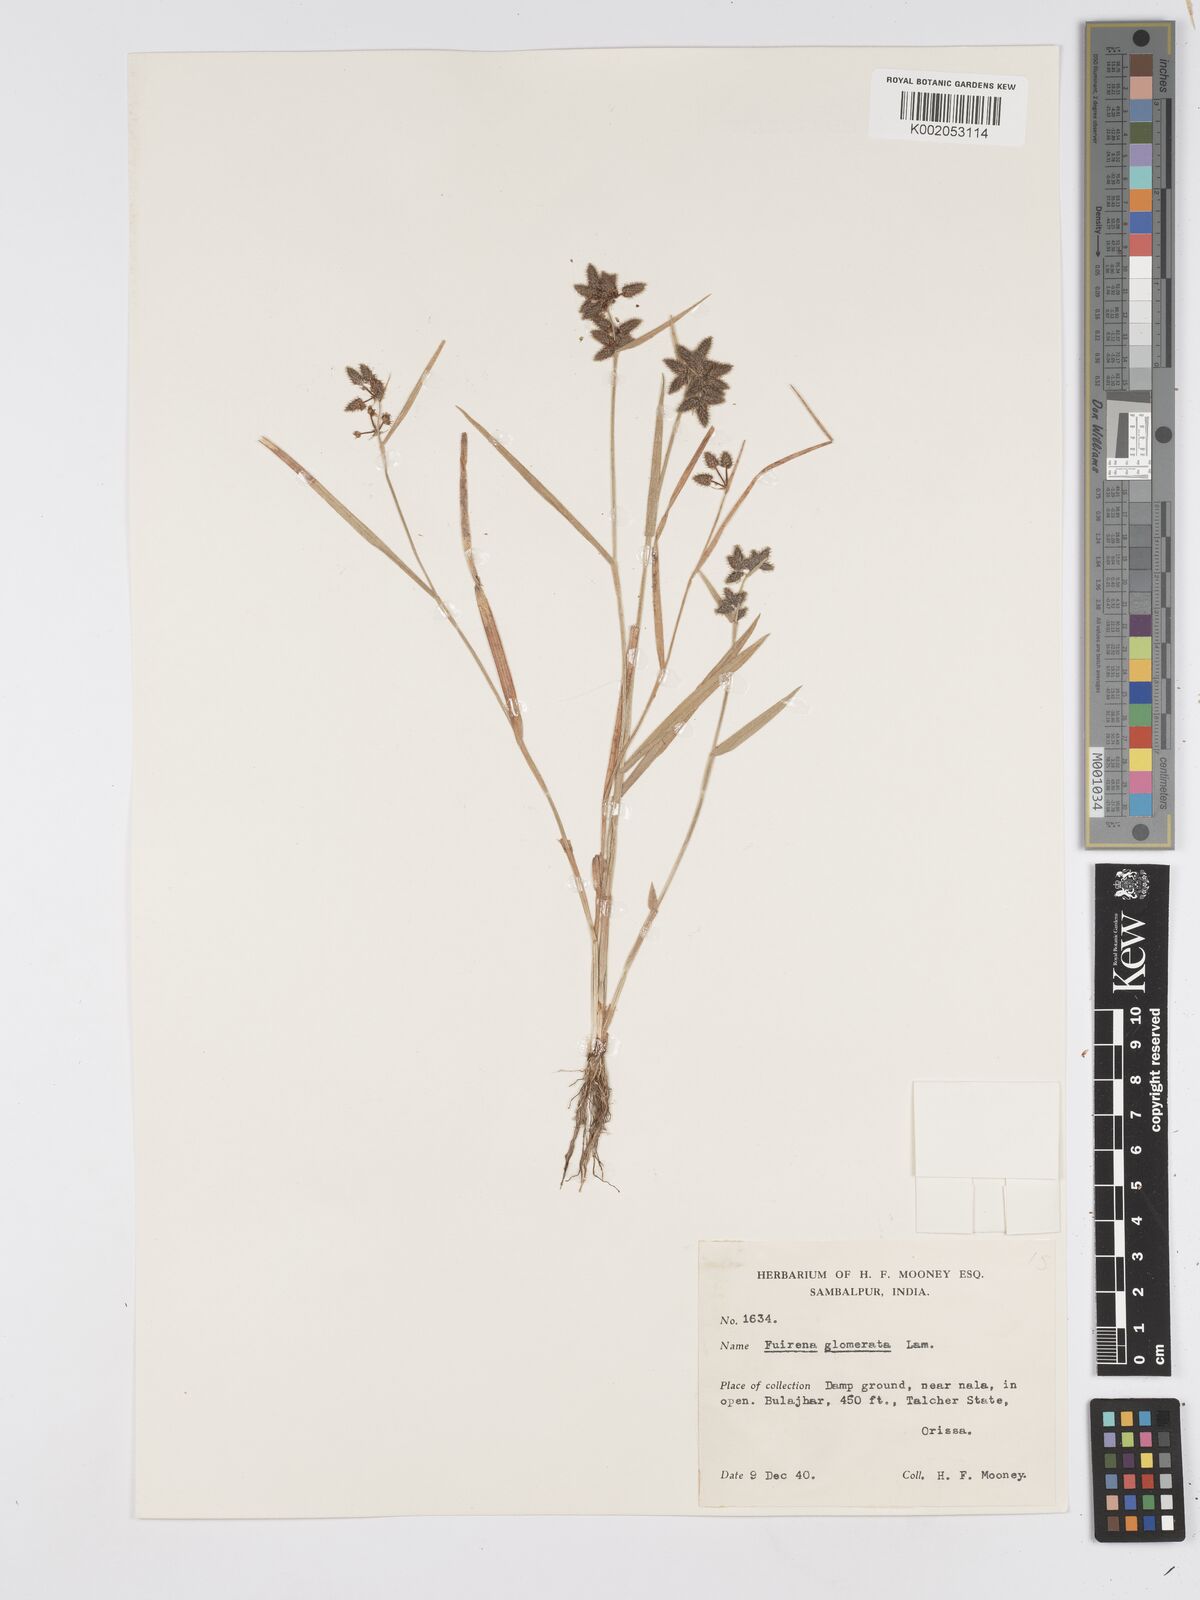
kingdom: Plantae
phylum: Tracheophyta
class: Liliopsida
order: Poales
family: Cyperaceae
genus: Fuirena
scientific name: Fuirena ciliaris
